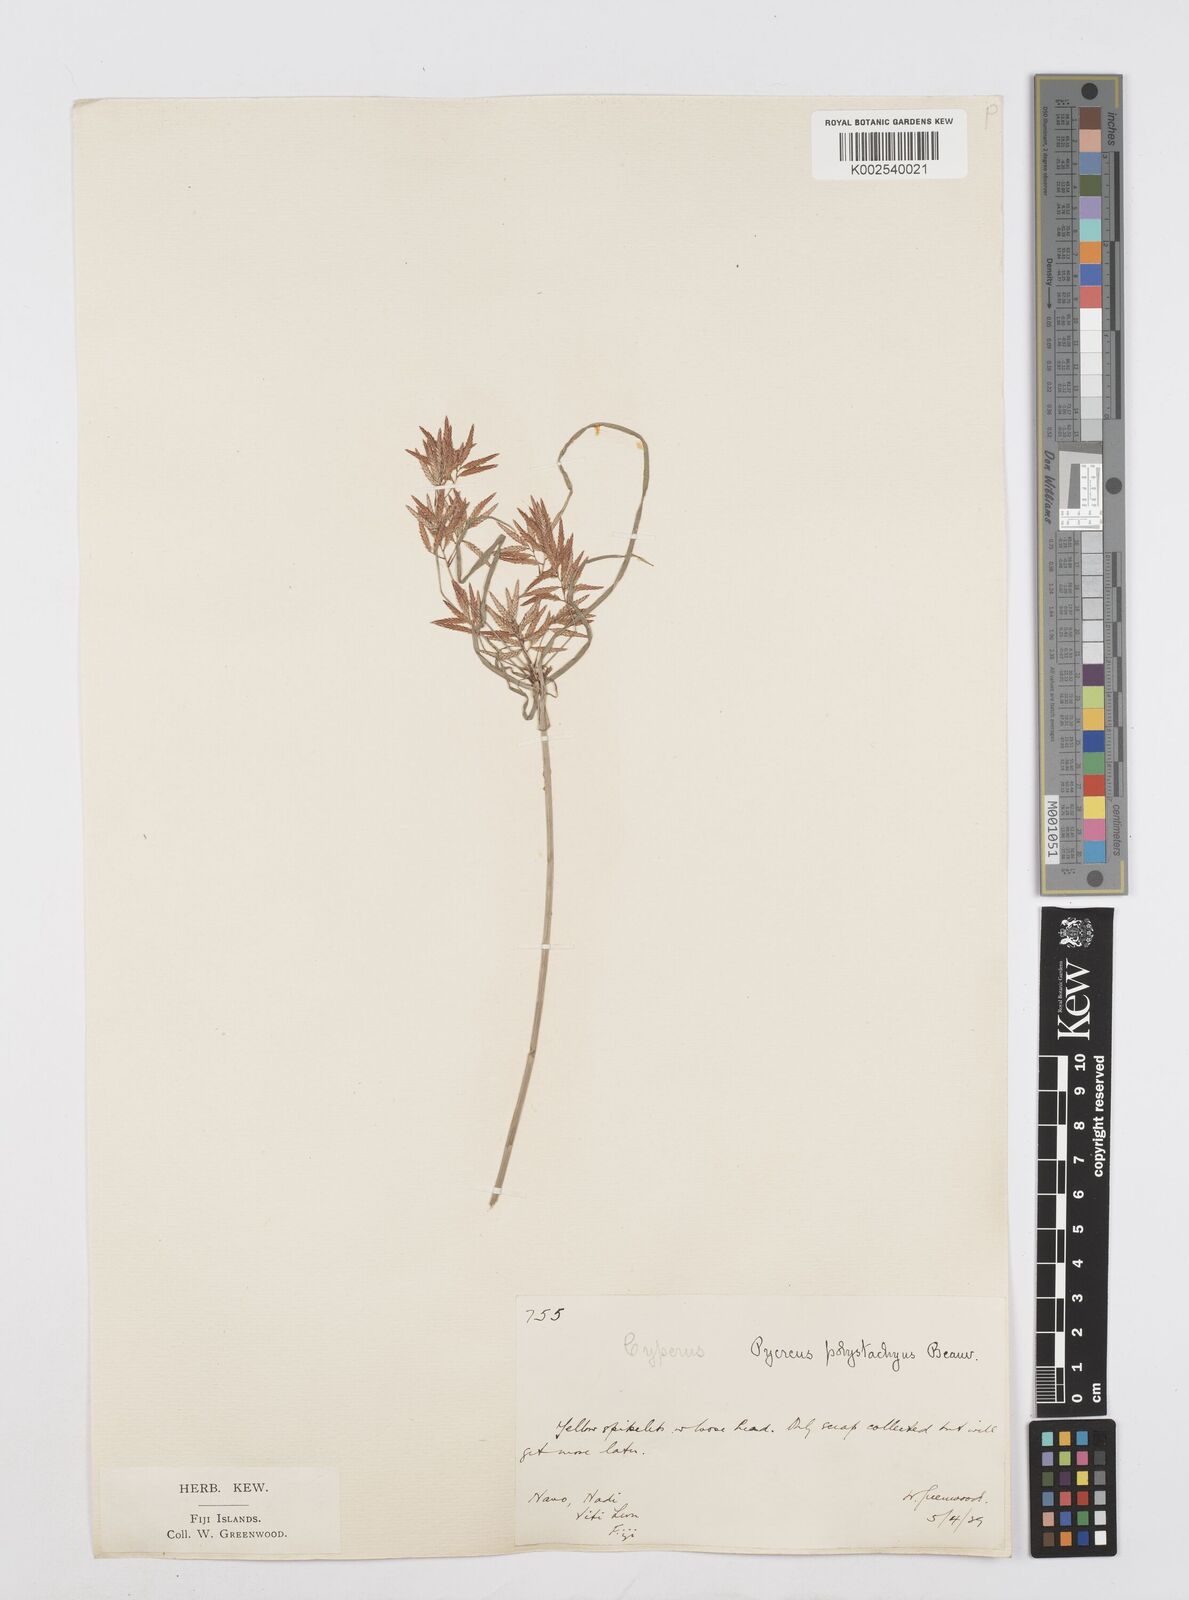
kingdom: Plantae
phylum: Tracheophyta
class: Liliopsida
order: Poales
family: Cyperaceae
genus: Cyperus
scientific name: Cyperus polystachyos
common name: Bunchy flat sedge
